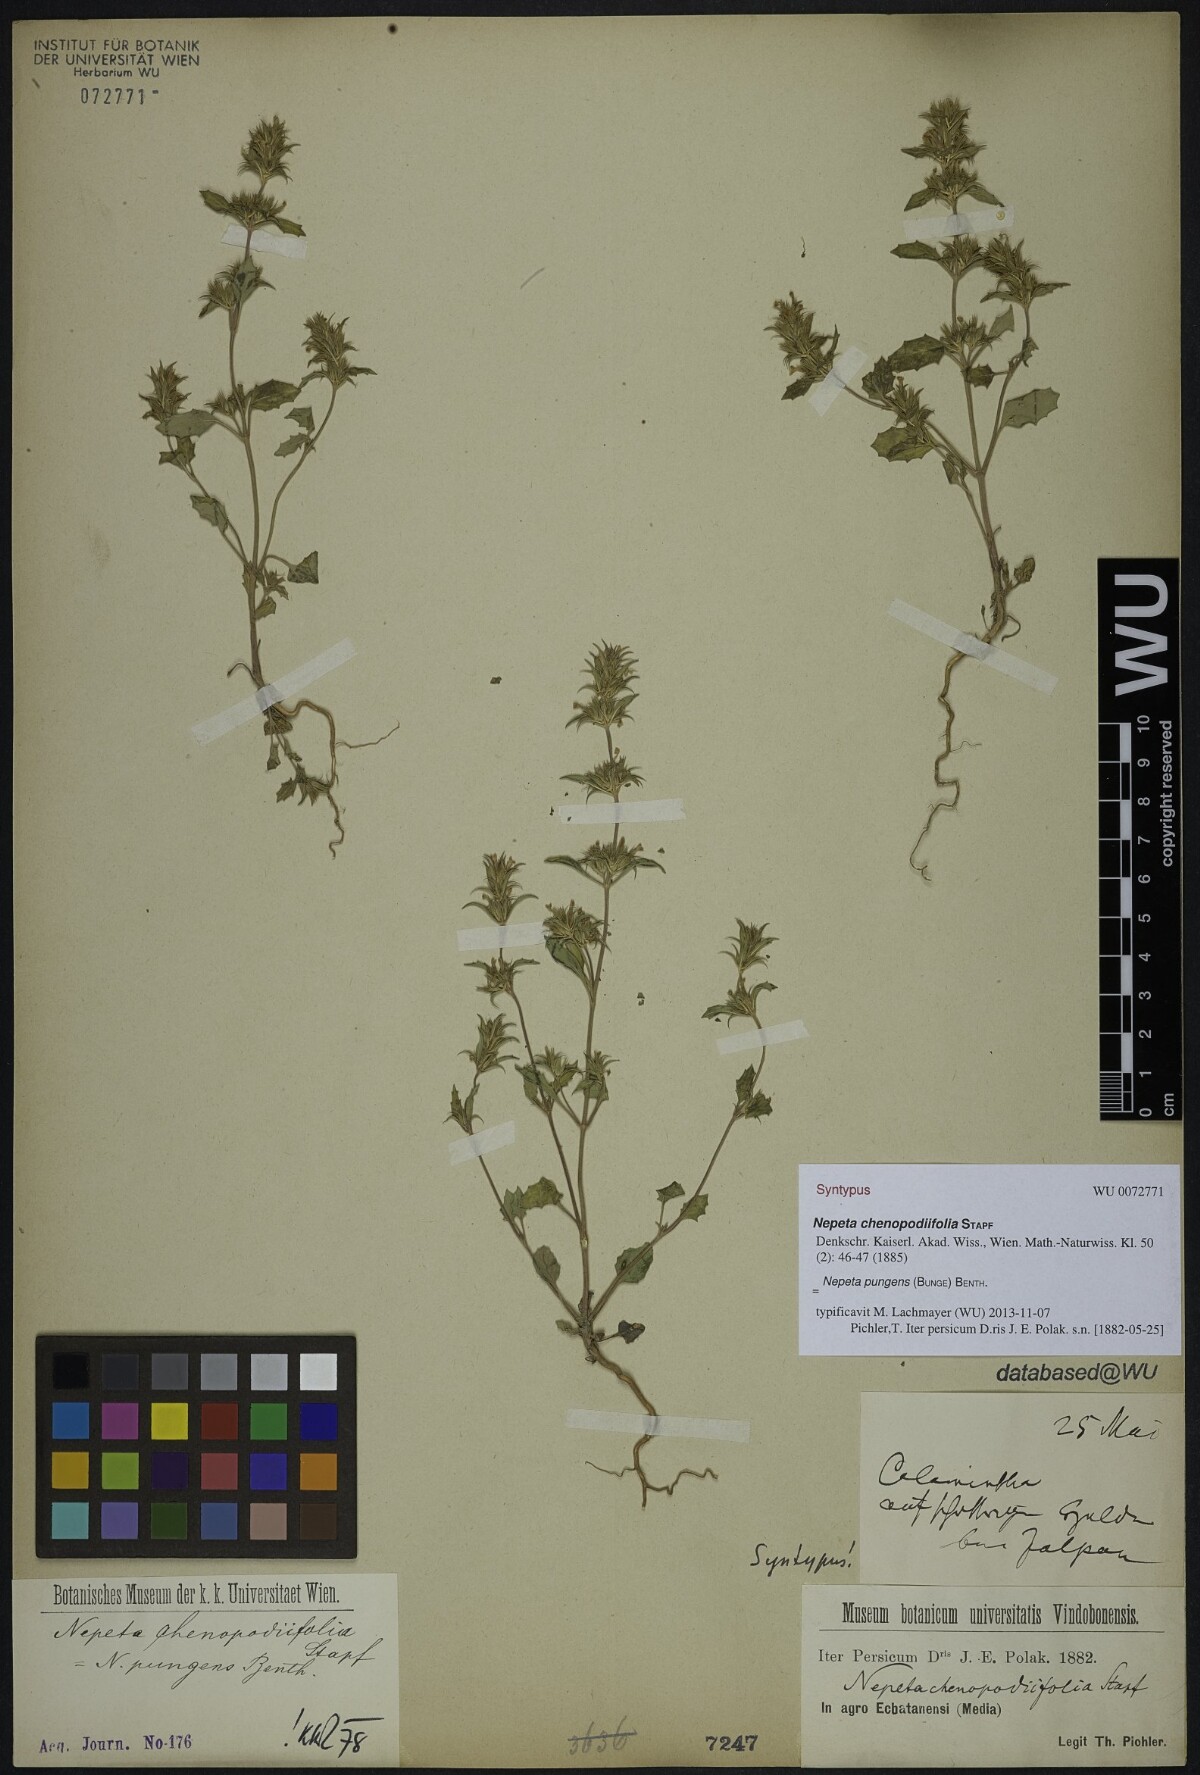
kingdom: Plantae
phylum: Tracheophyta
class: Magnoliopsida
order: Lamiales
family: Lamiaceae
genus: Nepeta
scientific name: Nepeta pungens
